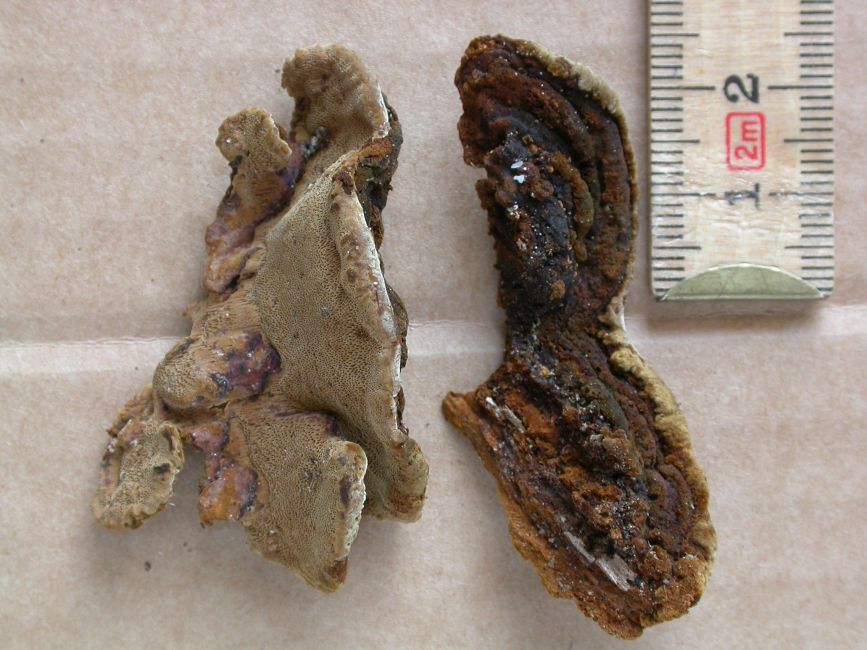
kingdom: Fungi
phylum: Basidiomycota
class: Agaricomycetes
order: Hymenochaetales
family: Hymenochaetaceae
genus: Phellinopsis
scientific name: Phellinopsis conchata
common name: pile-ildporesvamp
